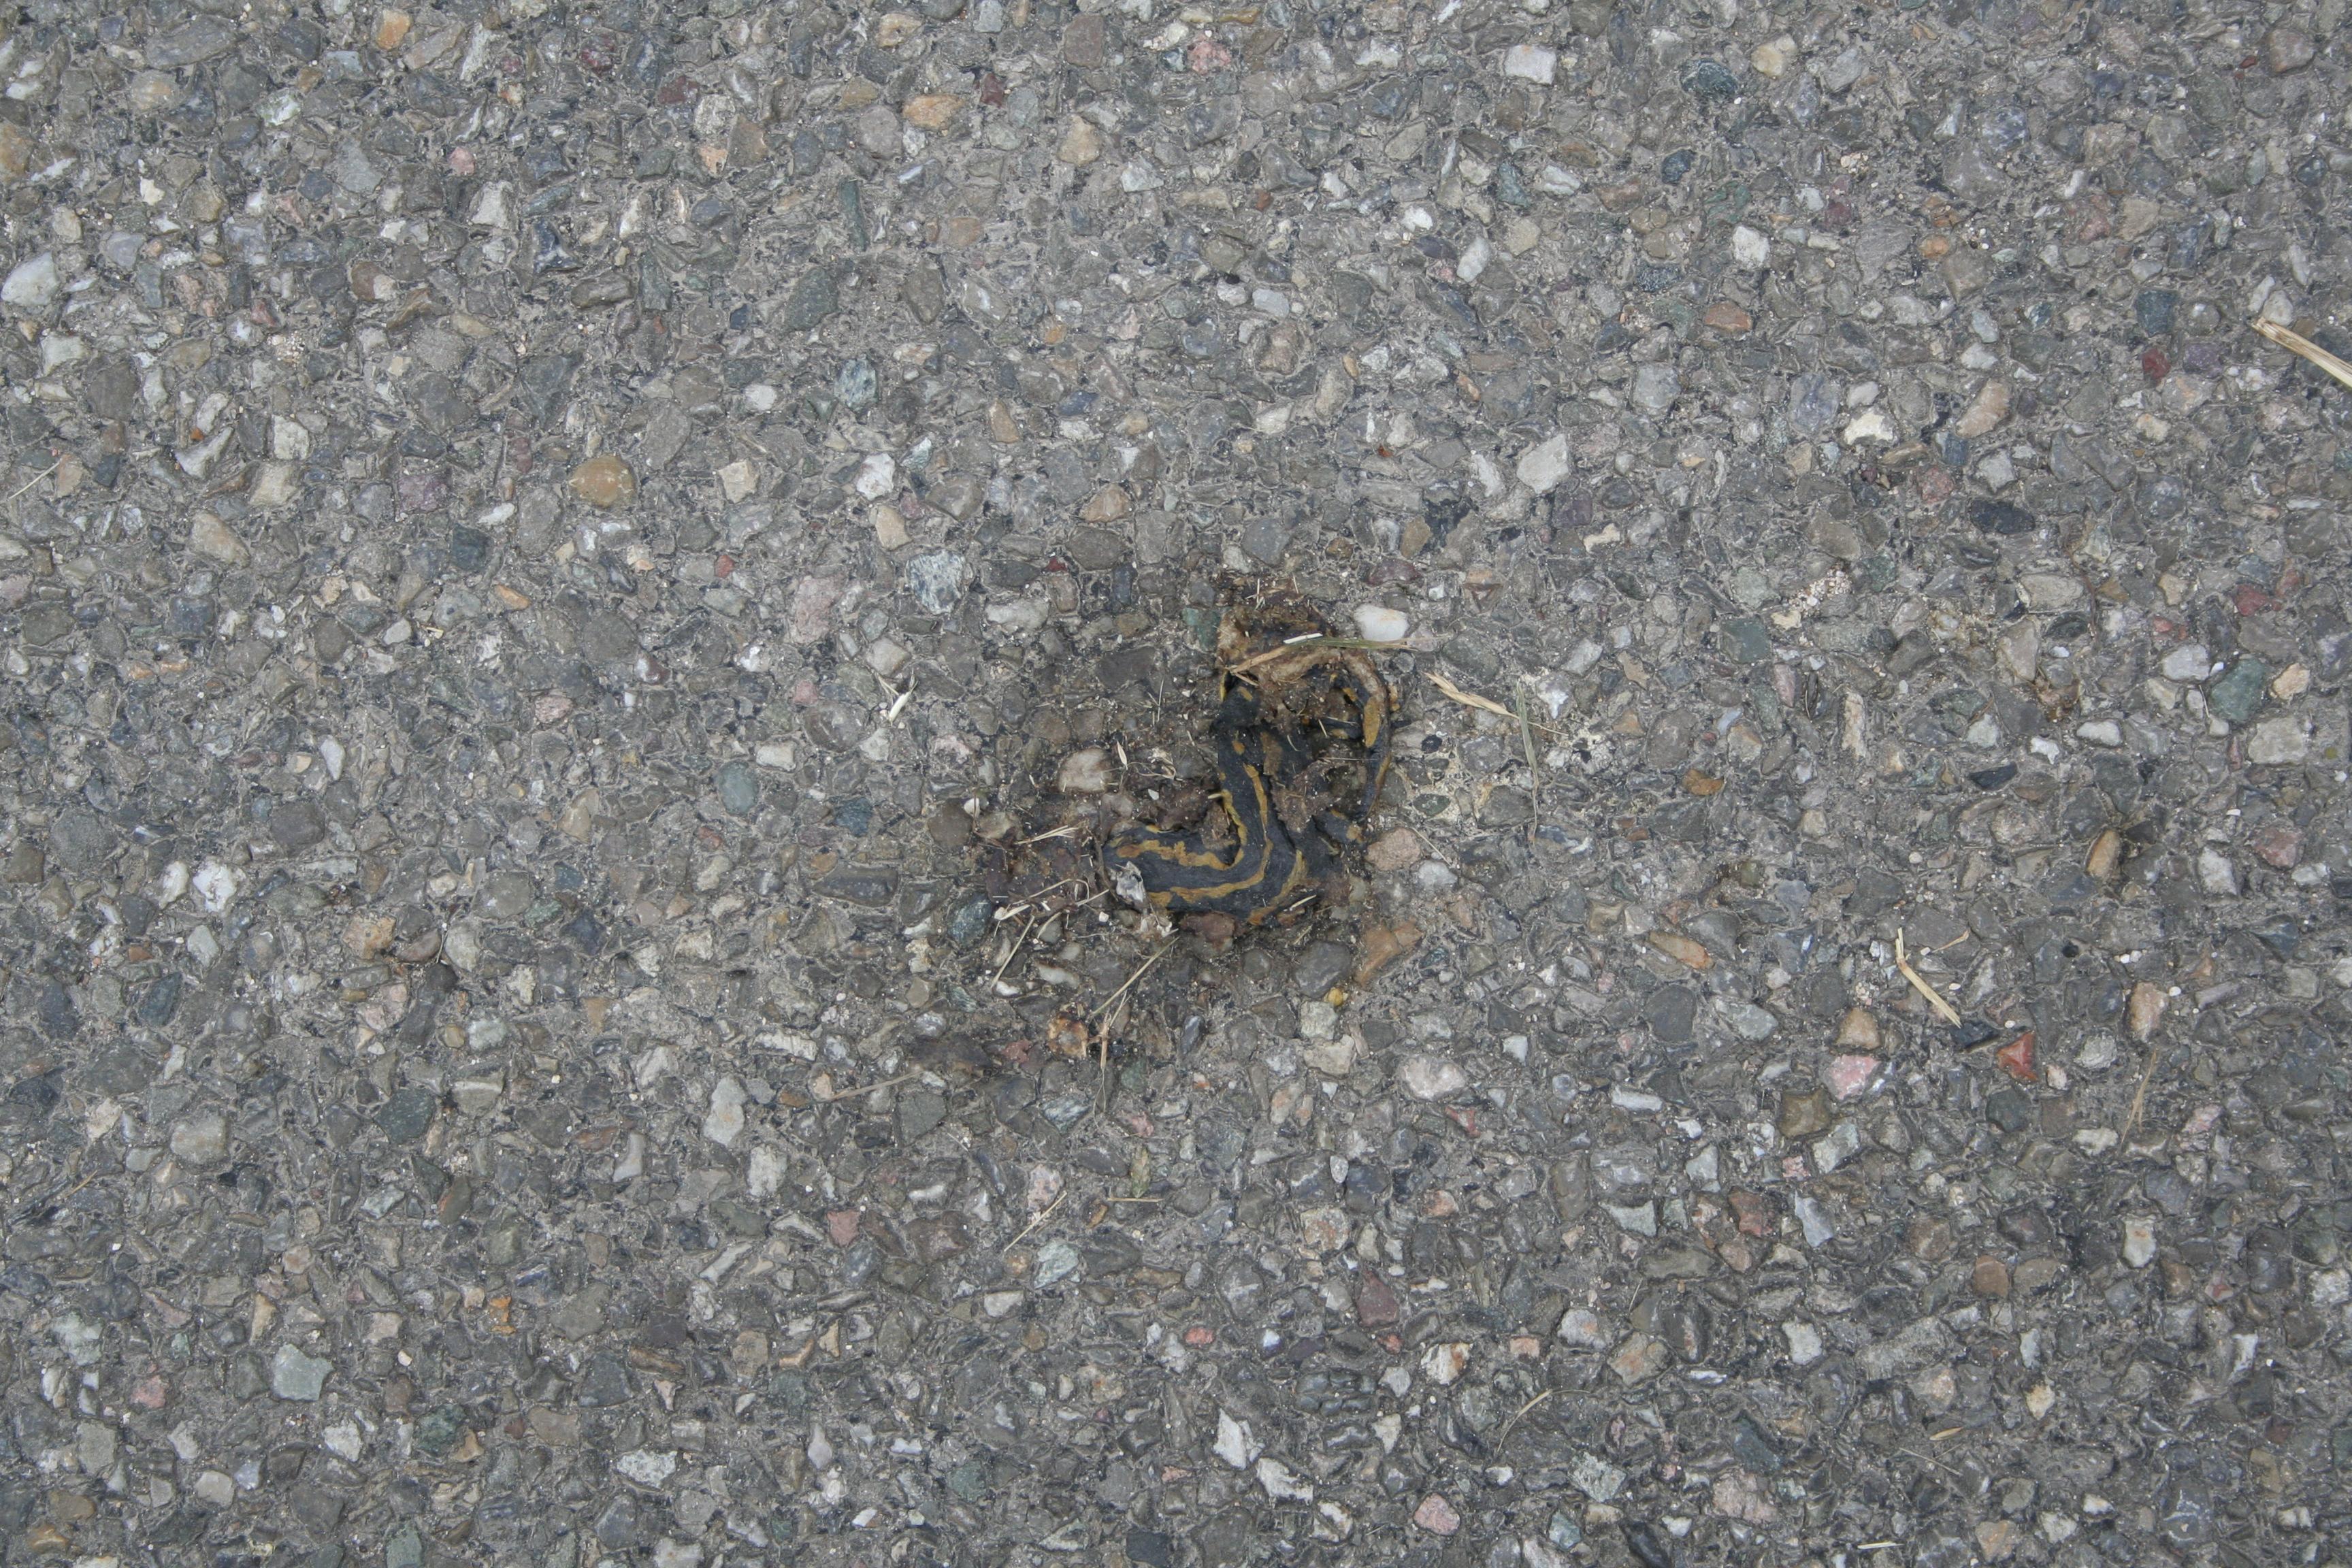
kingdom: Animalia
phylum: Chordata
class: Amphibia
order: Caudata
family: Salamandridae
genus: Salamandra
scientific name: Salamandra salamandra
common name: Fire salamander
